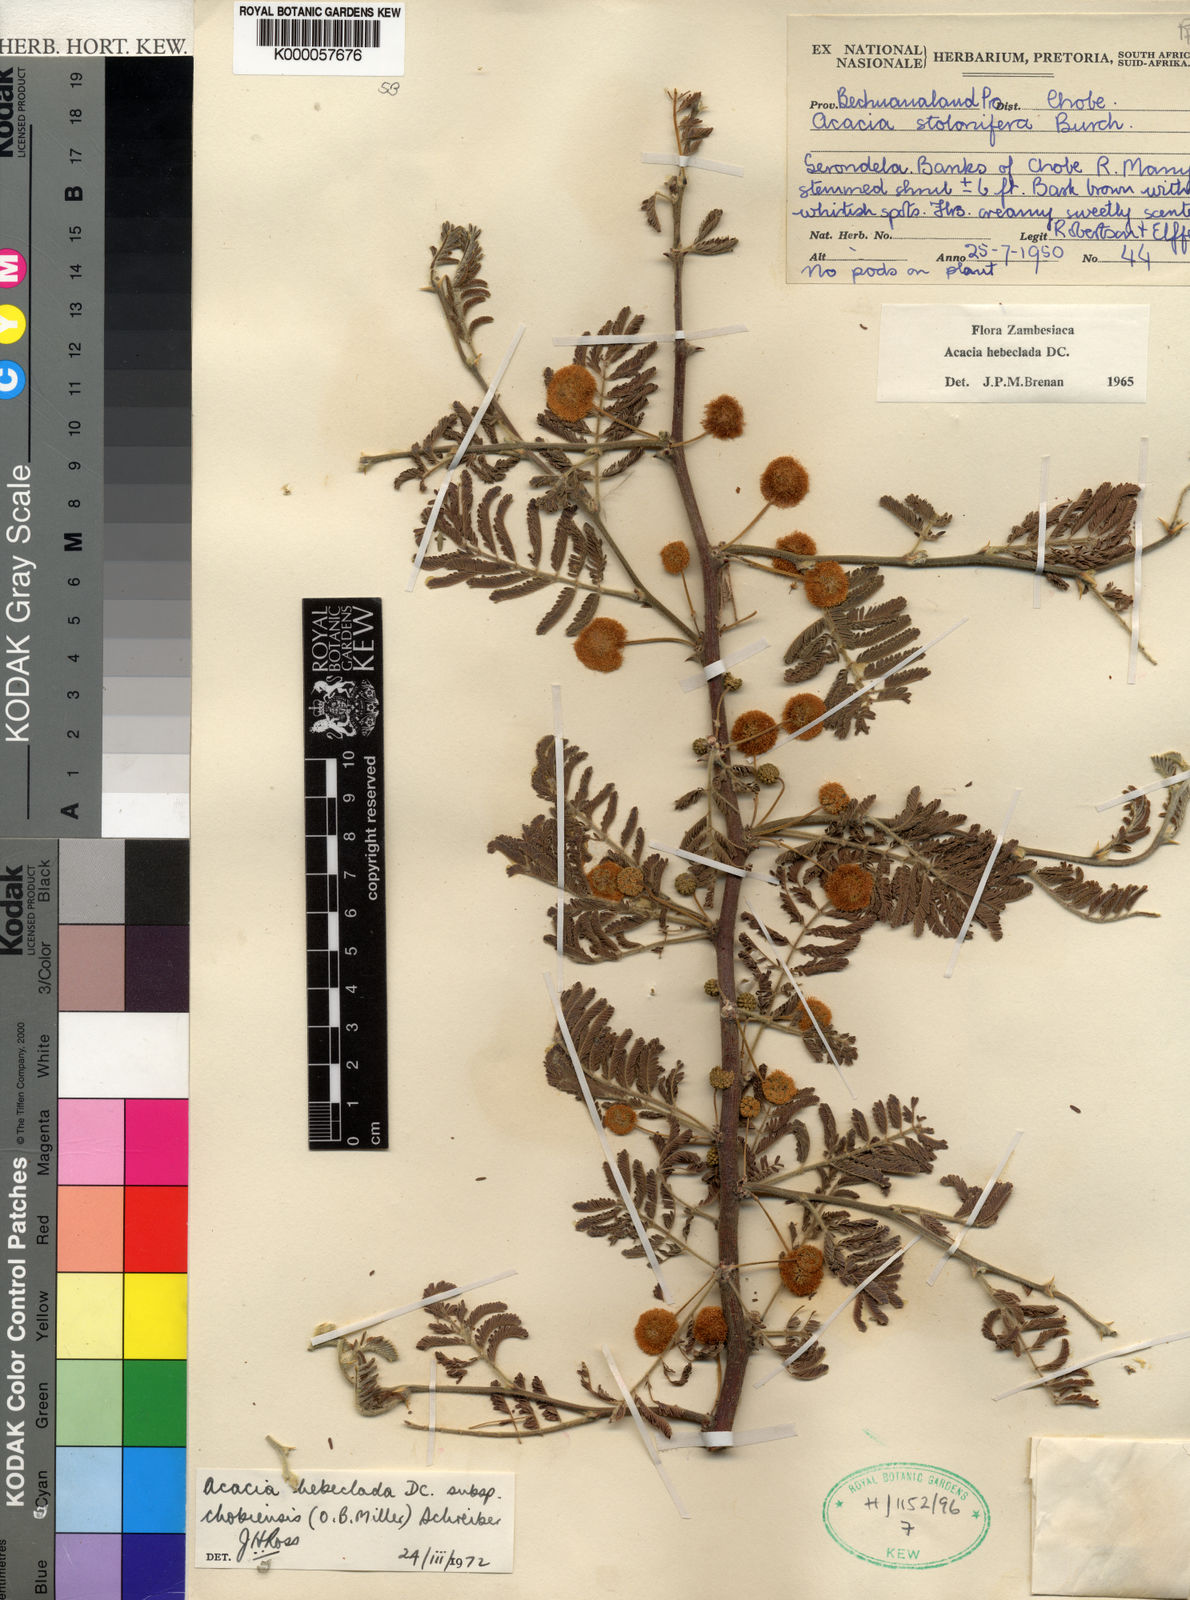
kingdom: Plantae
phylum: Tracheophyta
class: Magnoliopsida
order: Fabales
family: Fabaceae
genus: Vachellia
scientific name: Vachellia hebeclada
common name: Candle thorn
